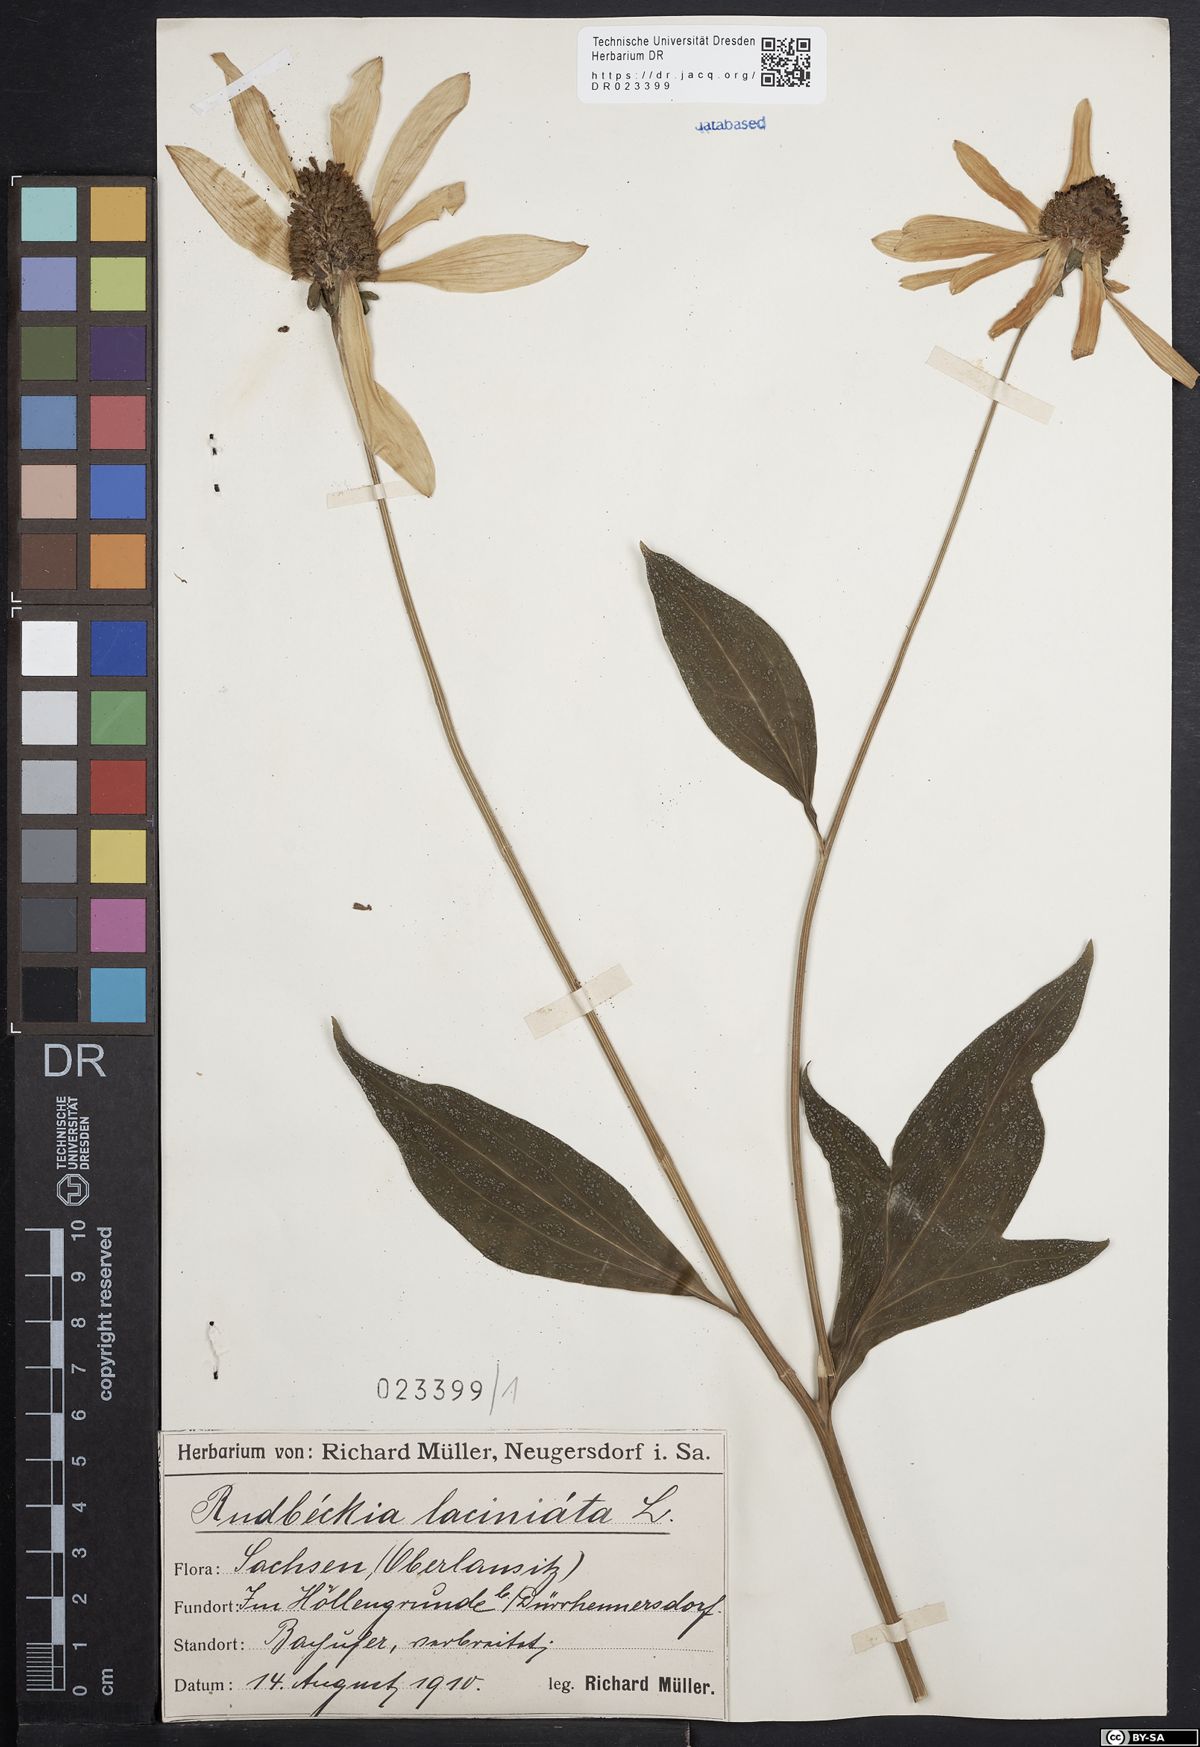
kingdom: Plantae
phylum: Tracheophyta
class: Magnoliopsida
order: Asterales
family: Asteraceae
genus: Rudbeckia
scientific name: Rudbeckia laciniata
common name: Coneflower
